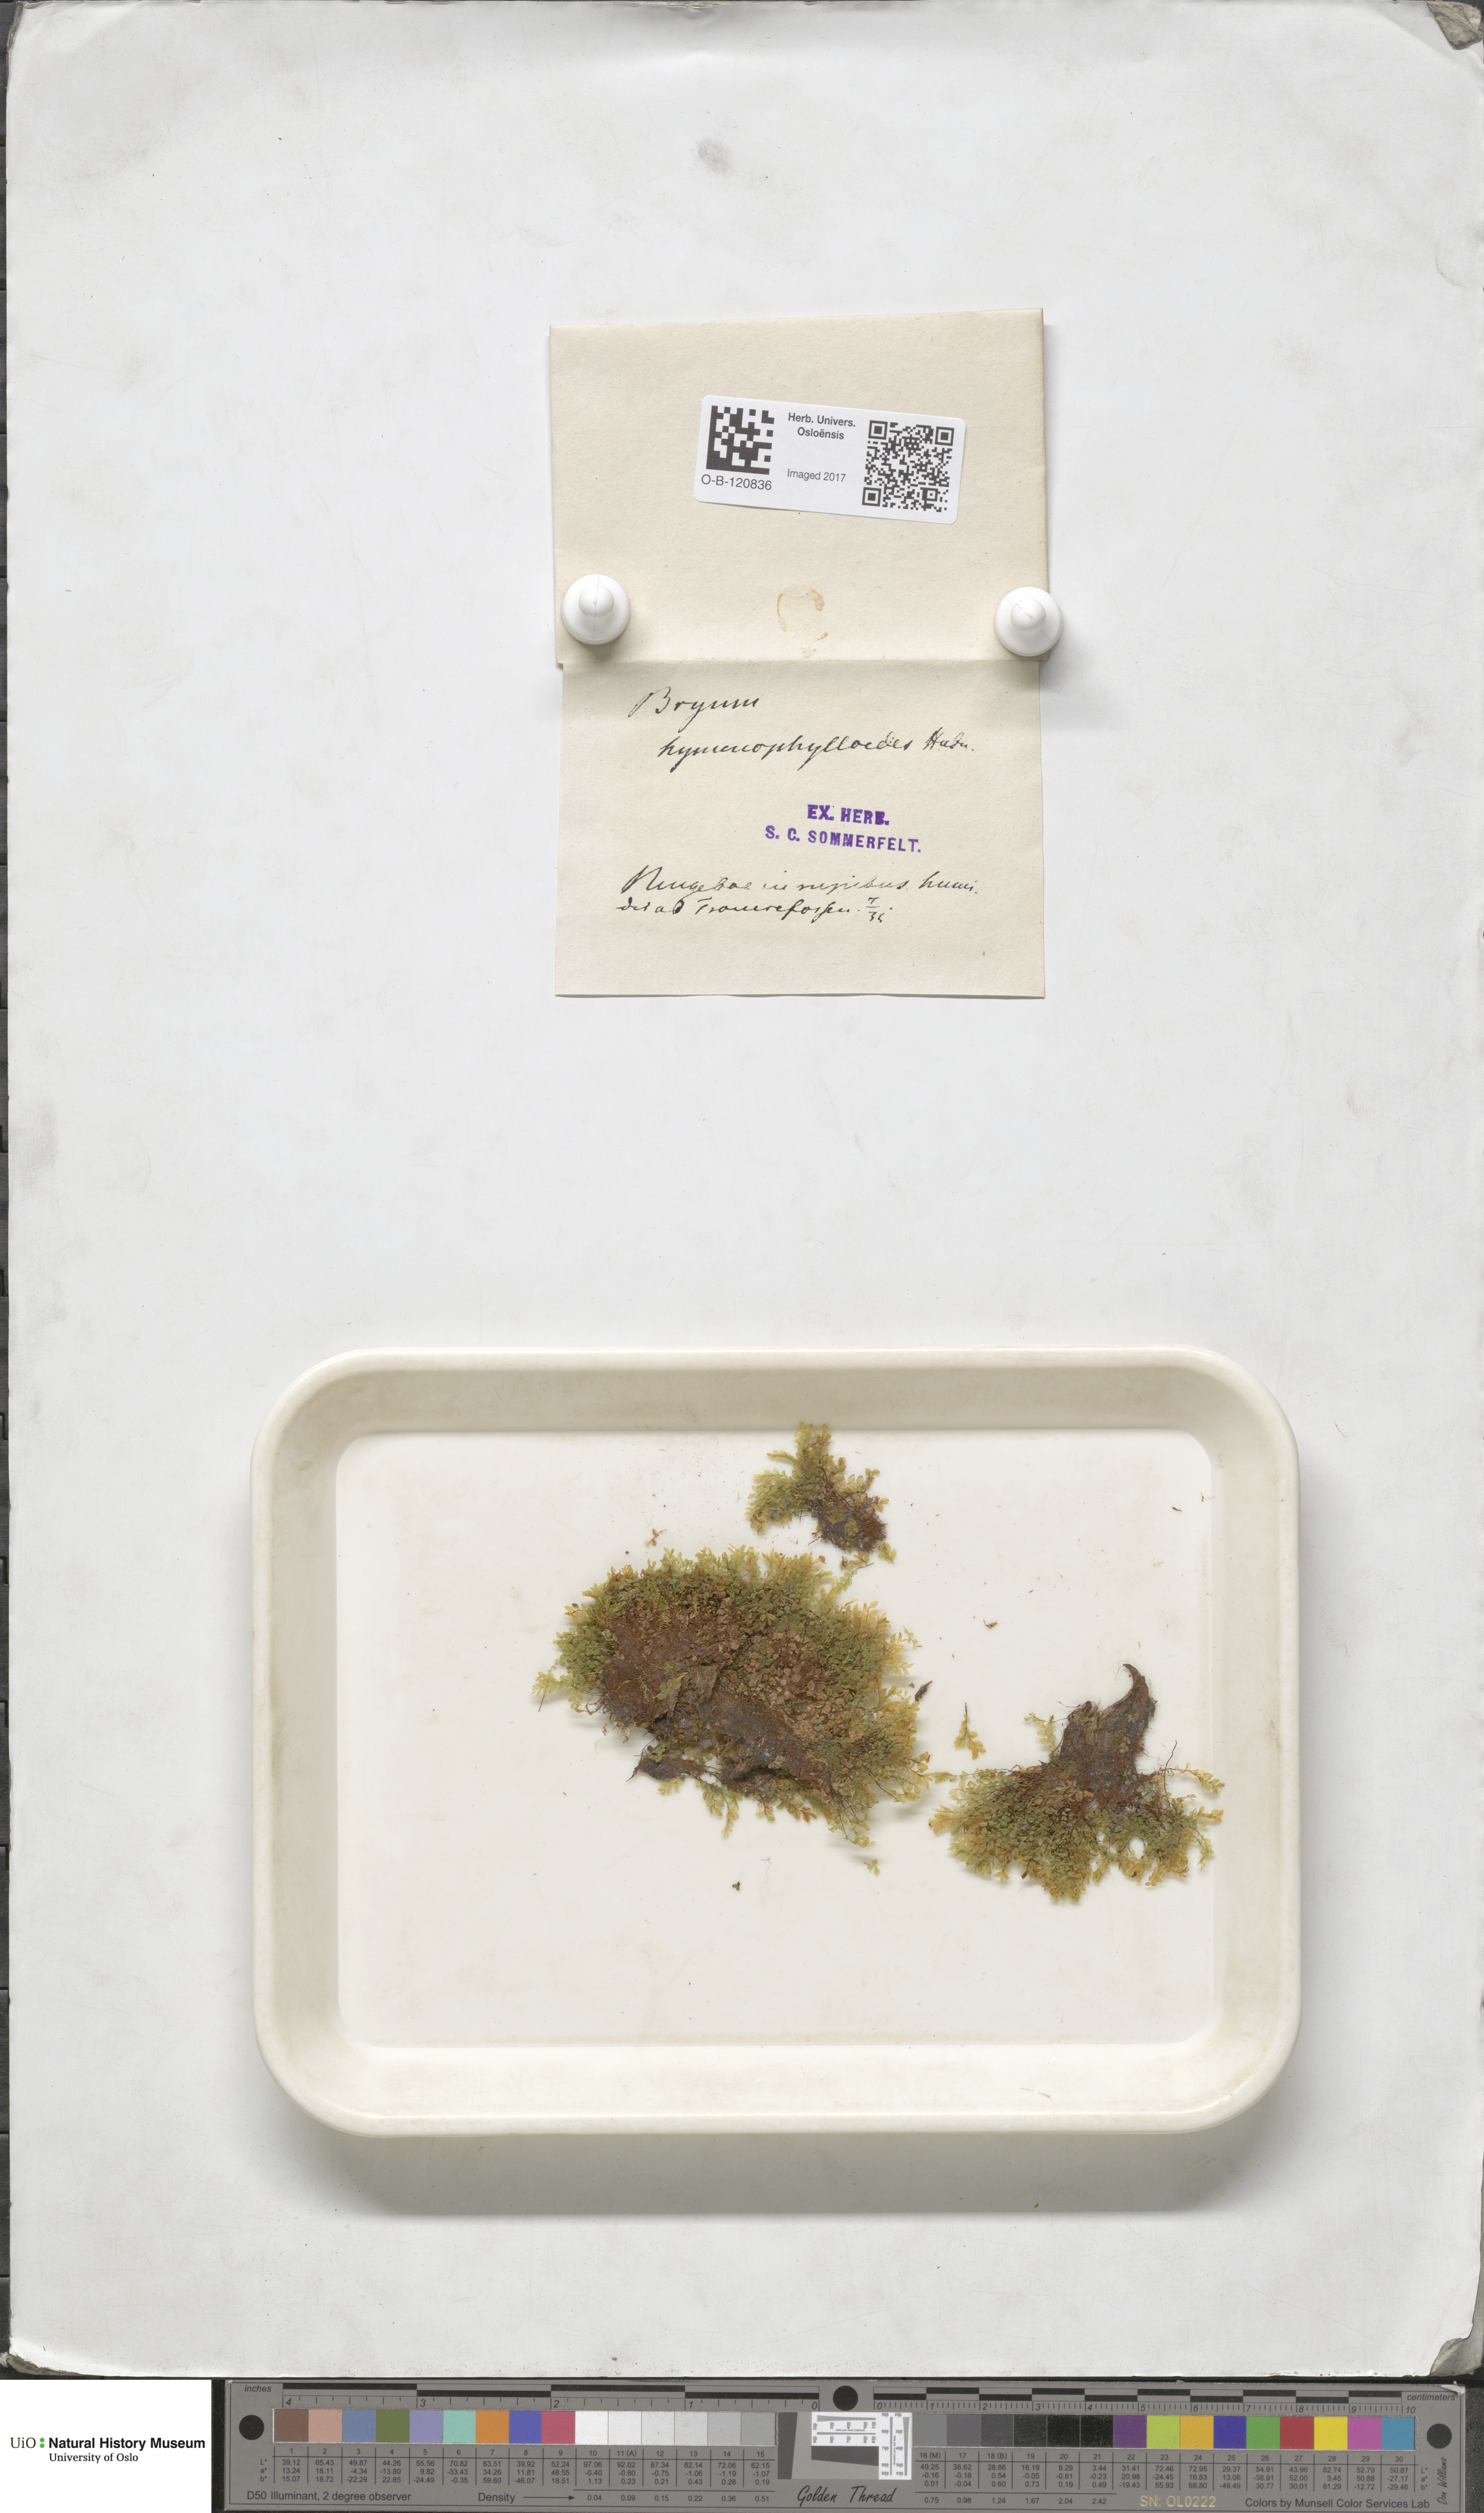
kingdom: Plantae
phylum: Bryophyta
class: Bryopsida
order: Bryales
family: Mniaceae
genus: Cyrtomnium
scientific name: Cyrtomnium hymenophylloides
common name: Short-pointed lantern moss
